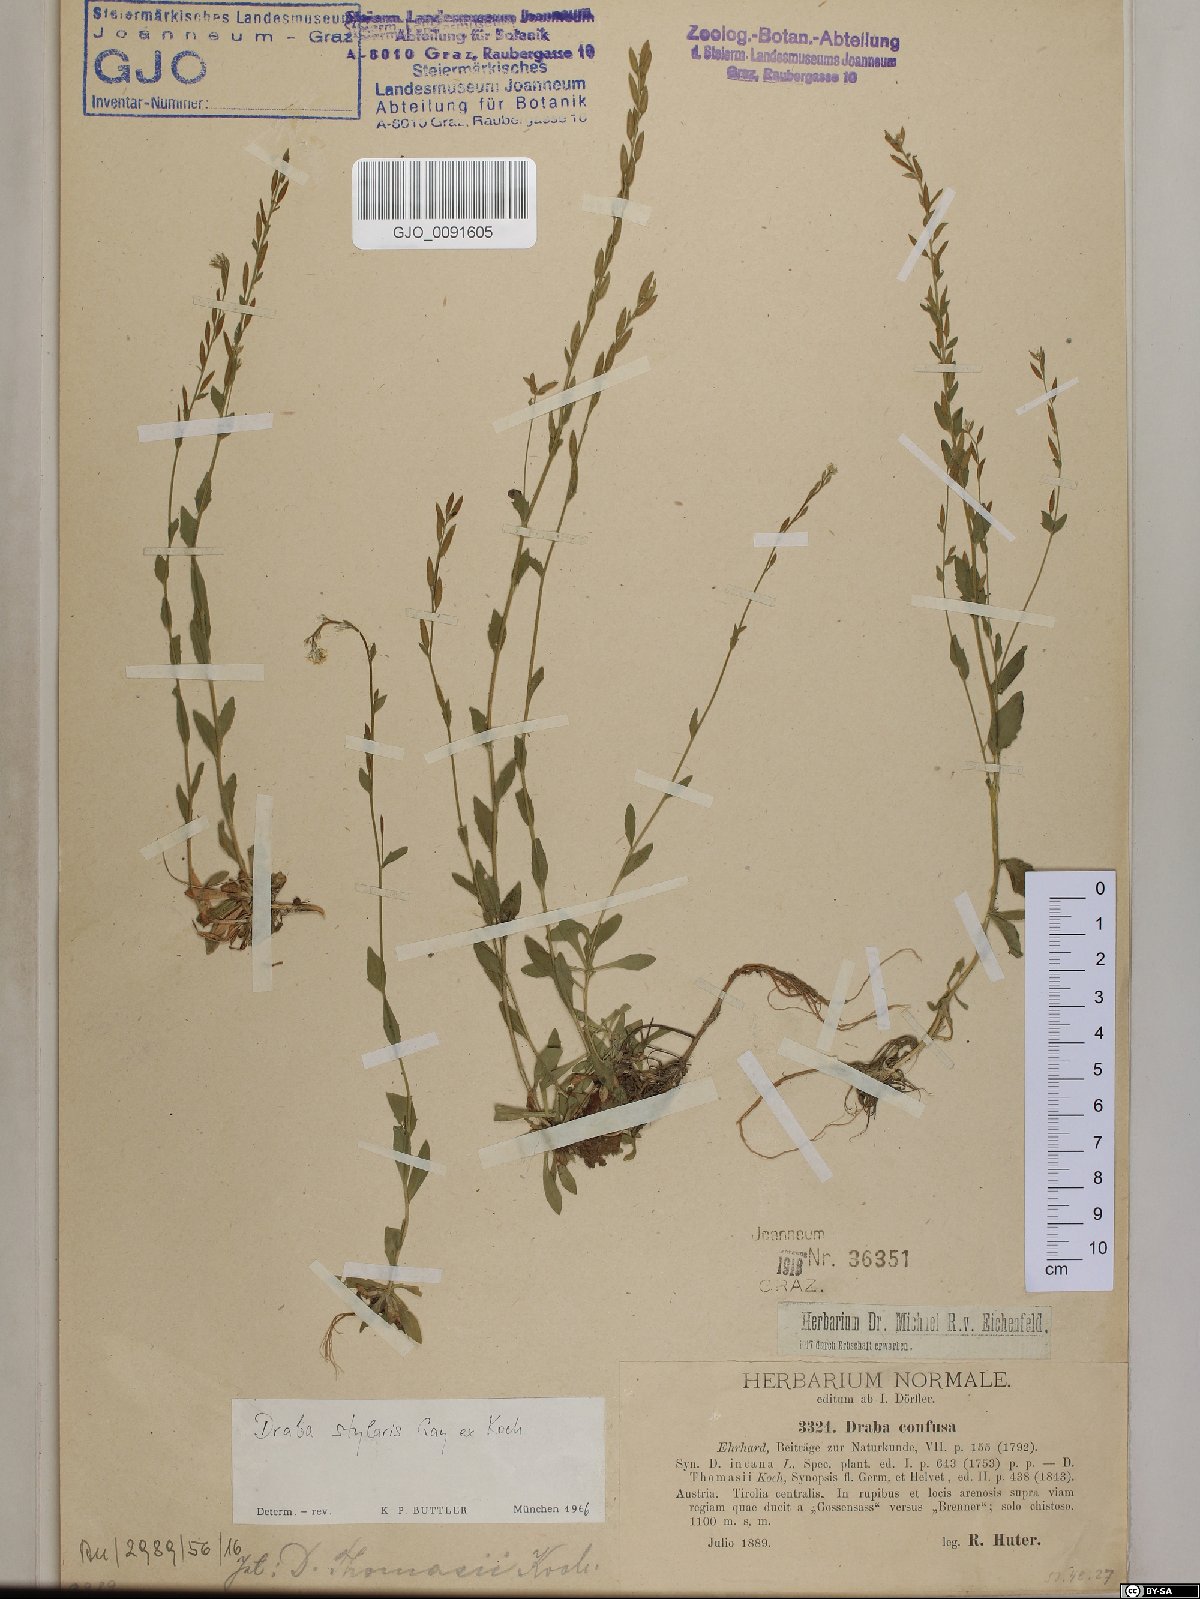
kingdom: Plantae
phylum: Tracheophyta
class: Magnoliopsida
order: Brassicales
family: Brassicaceae
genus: Draba
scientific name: Draba thomasii
